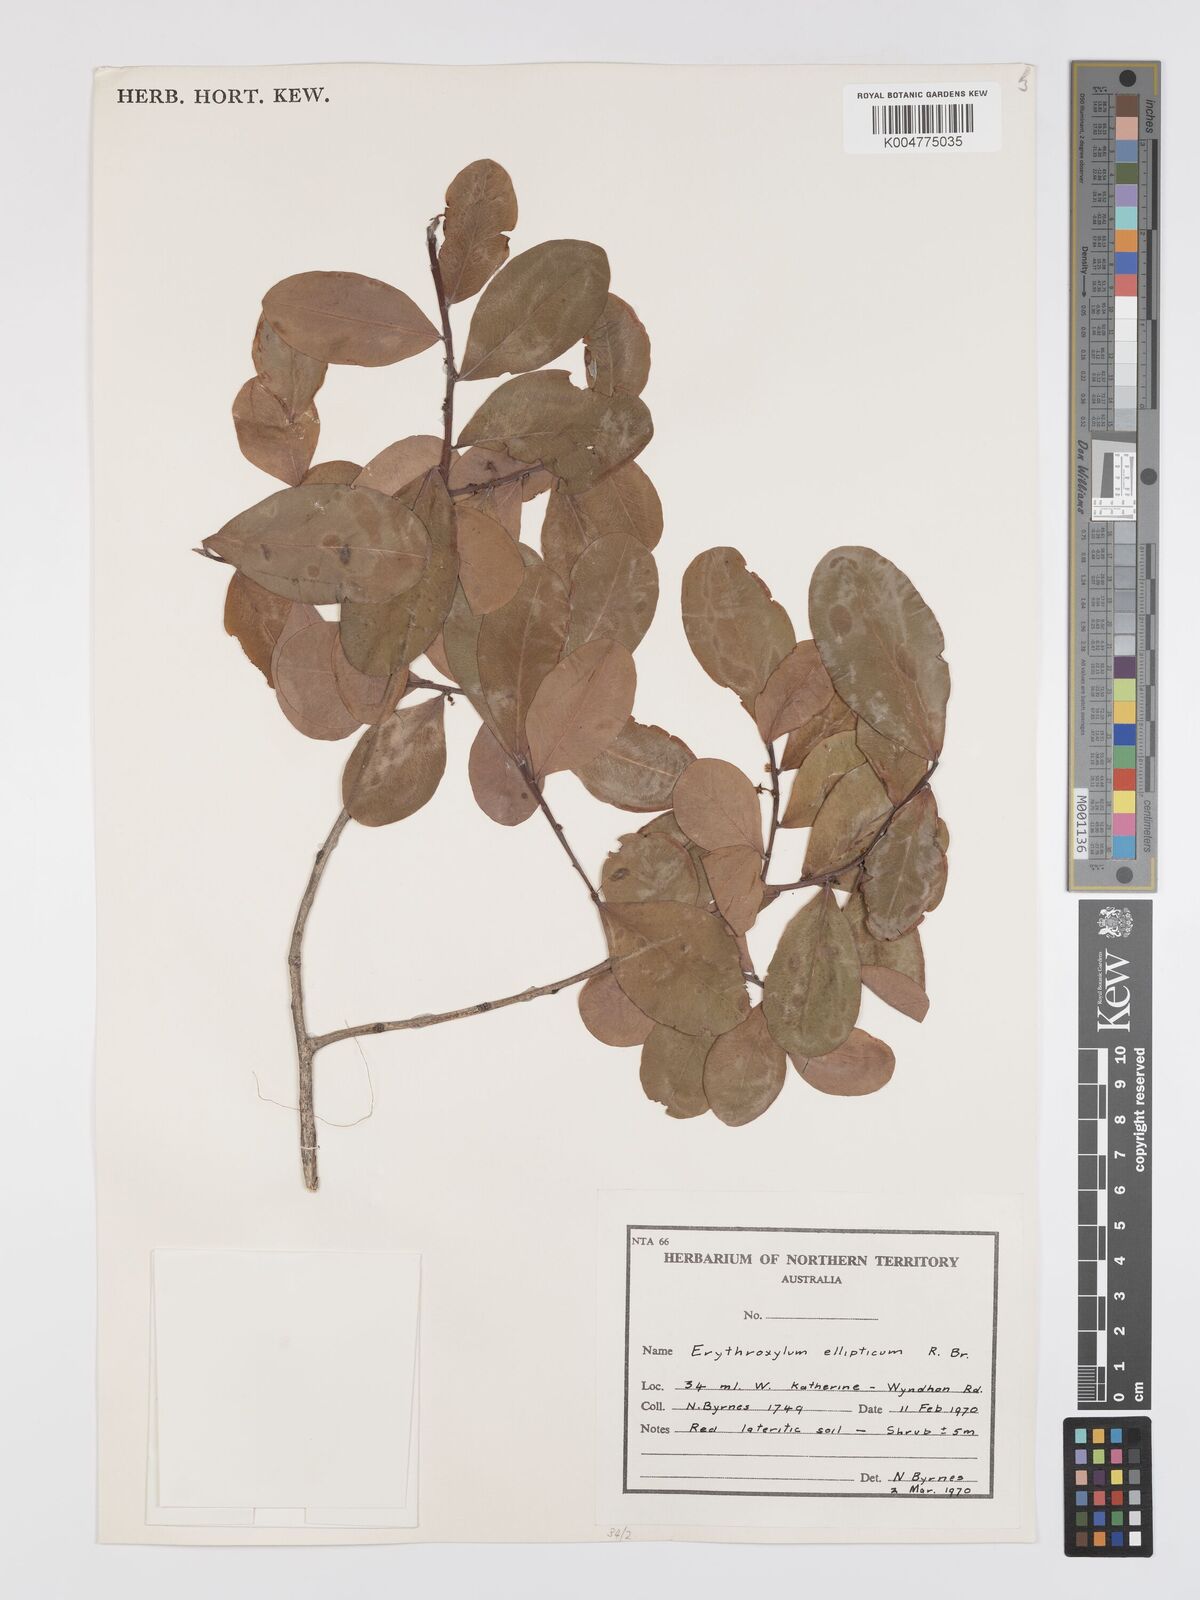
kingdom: Plantae
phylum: Tracheophyta
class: Magnoliopsida
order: Malpighiales
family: Erythroxylaceae
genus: Erythroxylum
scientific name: Erythroxylum
